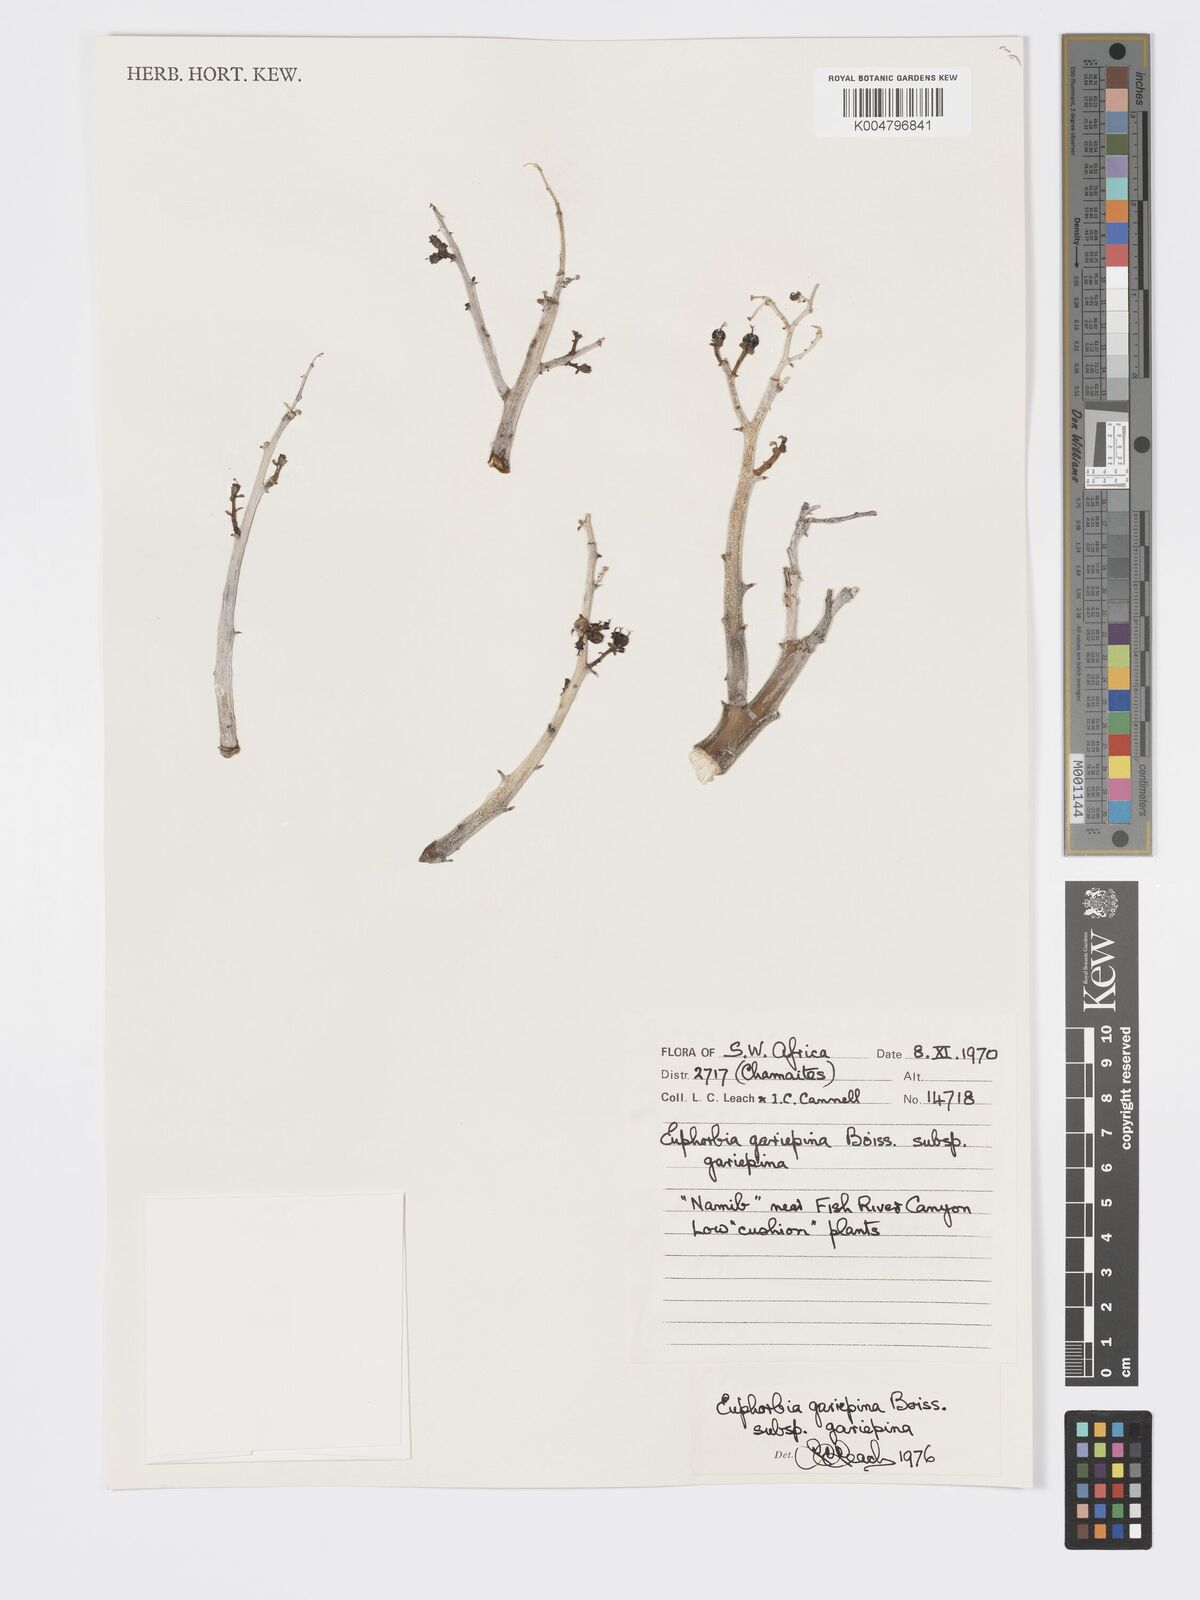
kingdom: Plantae
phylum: Tracheophyta
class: Magnoliopsida
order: Malpighiales
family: Euphorbiaceae
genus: Euphorbia
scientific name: Euphorbia gariepina
